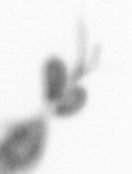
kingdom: Animalia
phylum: Arthropoda
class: Copepoda
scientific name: Copepoda
